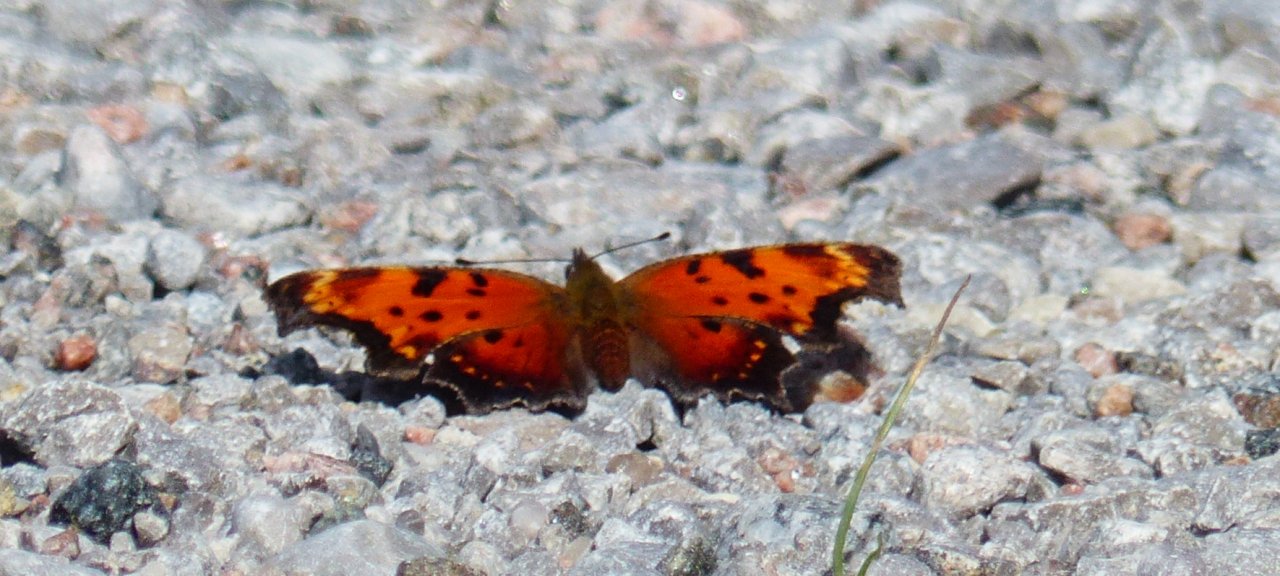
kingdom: Animalia
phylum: Arthropoda
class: Insecta
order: Lepidoptera
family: Nymphalidae
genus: Polygonia
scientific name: Polygonia progne
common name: Gray Comma
